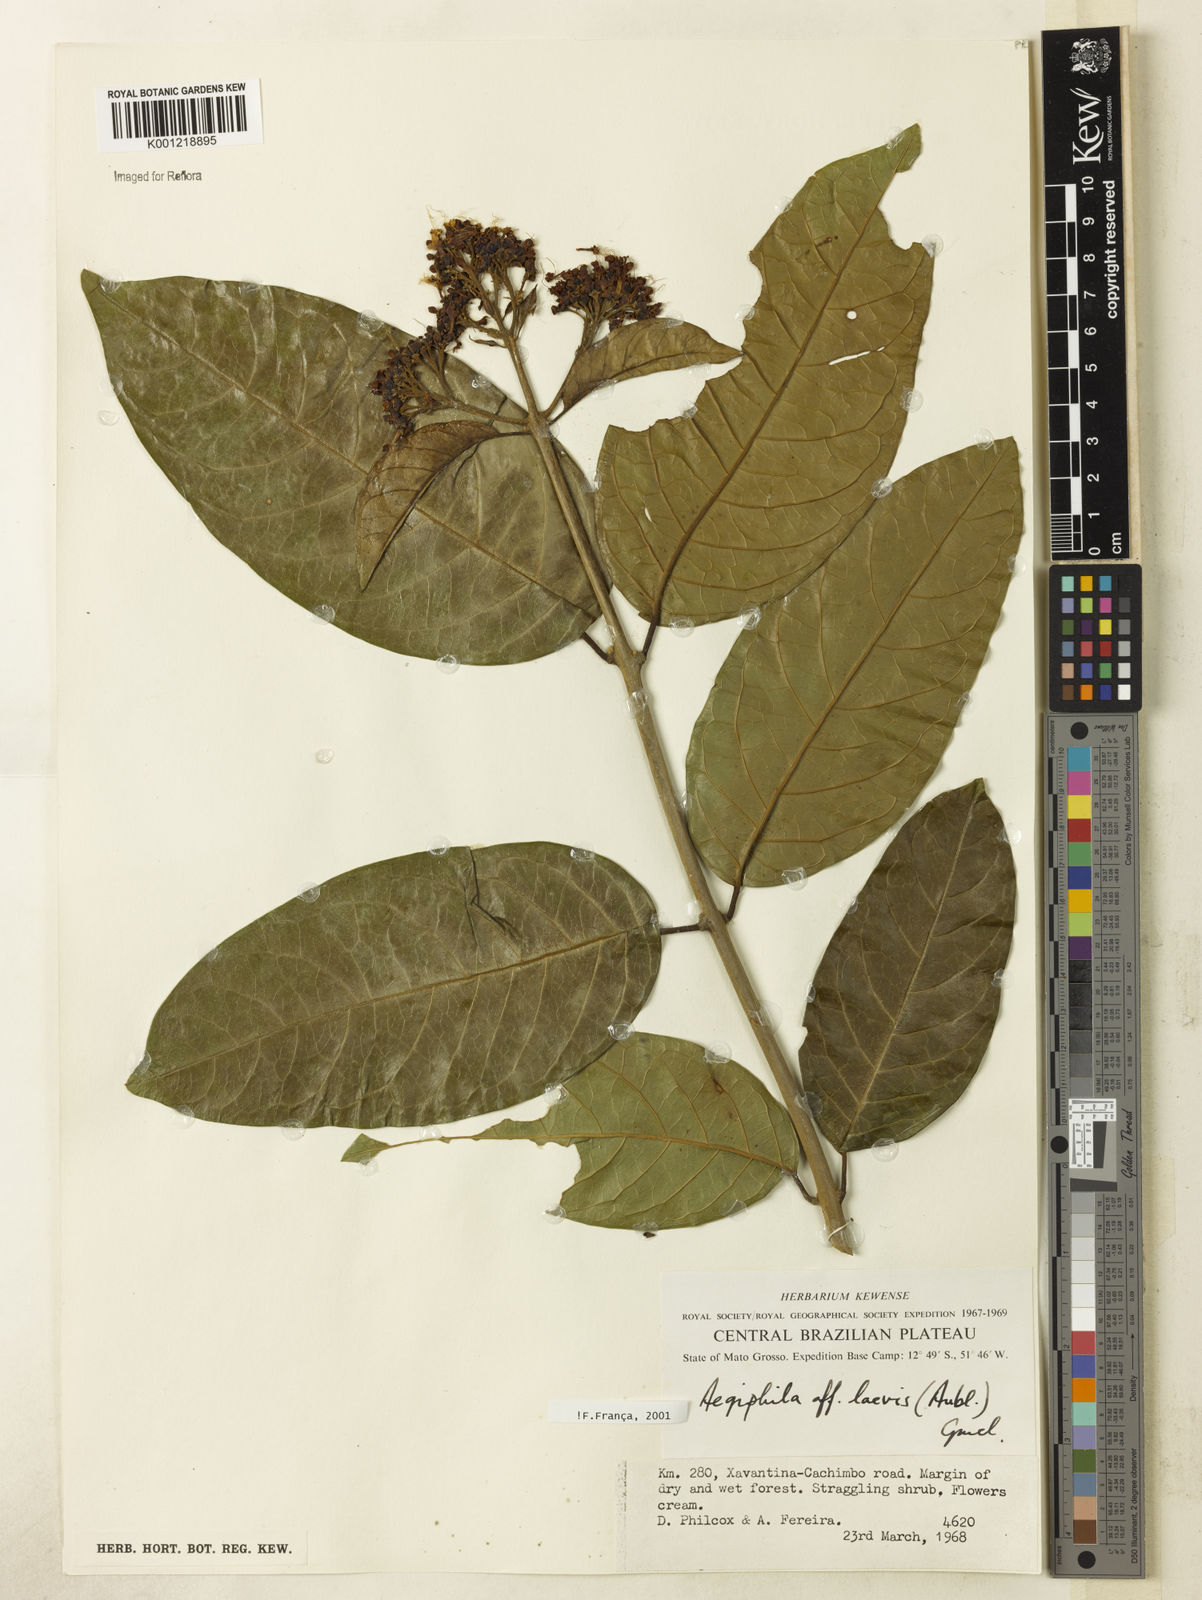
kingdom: Plantae
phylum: Tracheophyta
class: Magnoliopsida
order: Lamiales
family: Lamiaceae
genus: Aegiphila
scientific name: Aegiphila laevis
